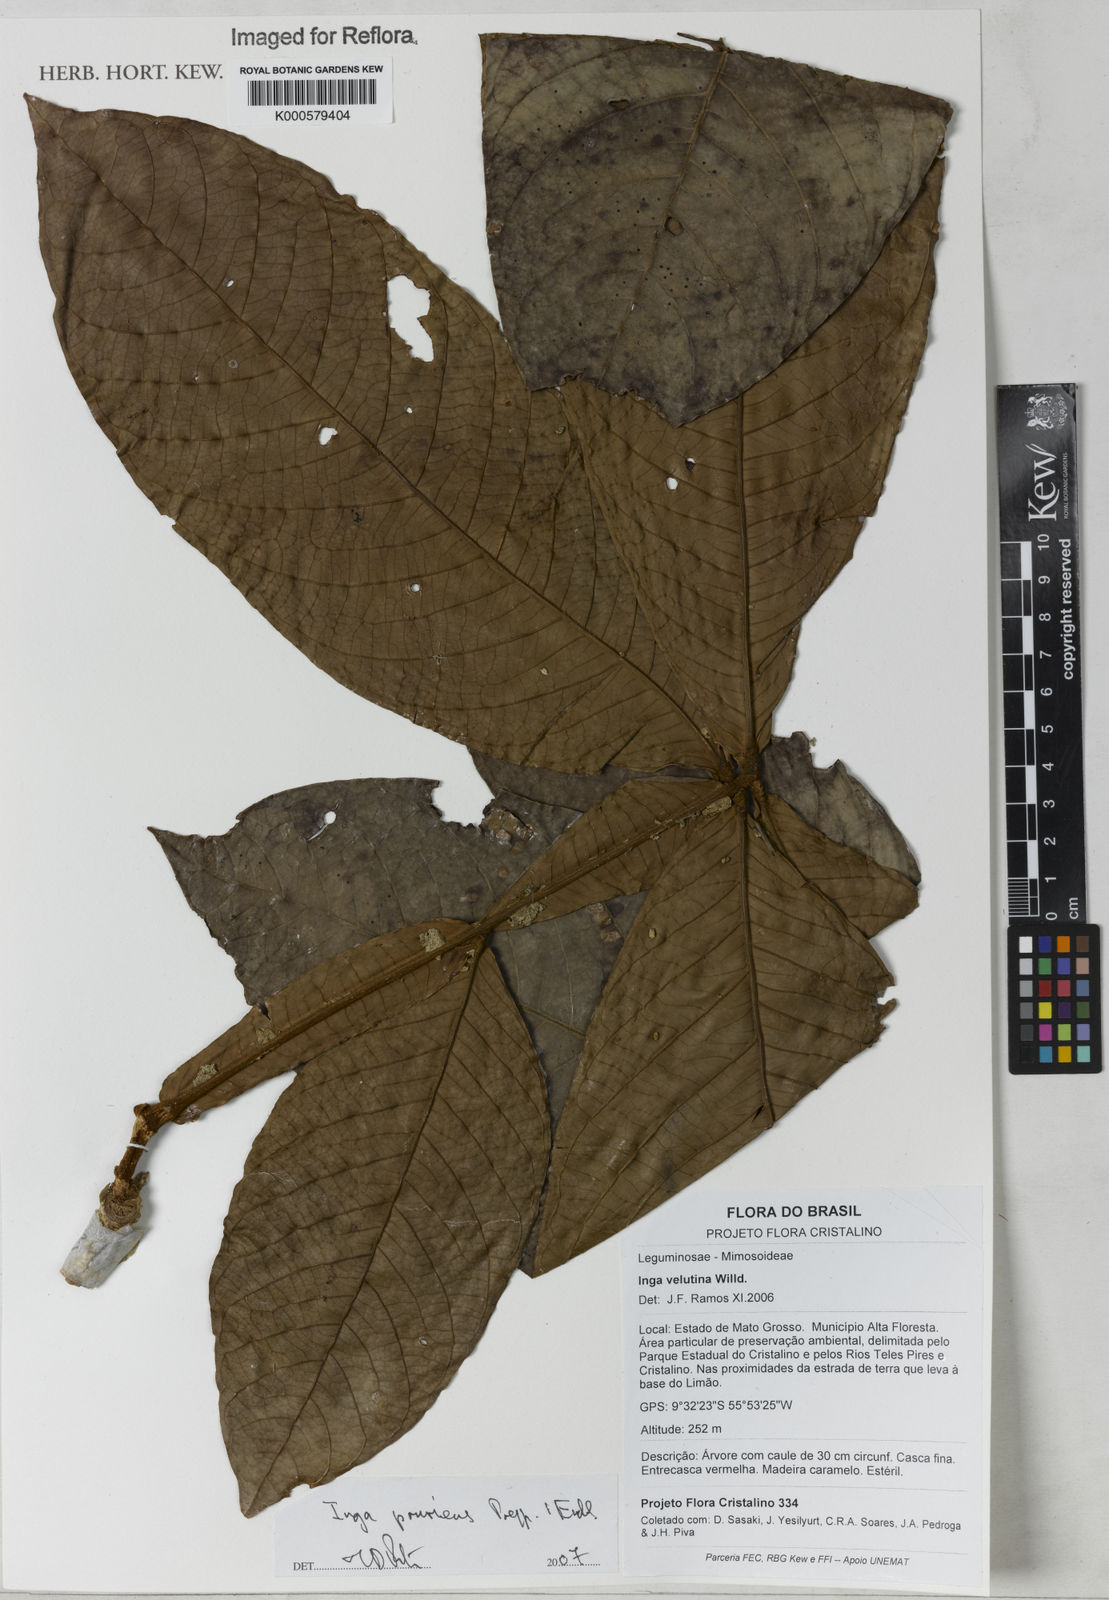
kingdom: Plantae
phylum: Tracheophyta
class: Magnoliopsida
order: Fabales
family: Fabaceae
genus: Inga
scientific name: Inga pruriens
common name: Howler monkey inga
